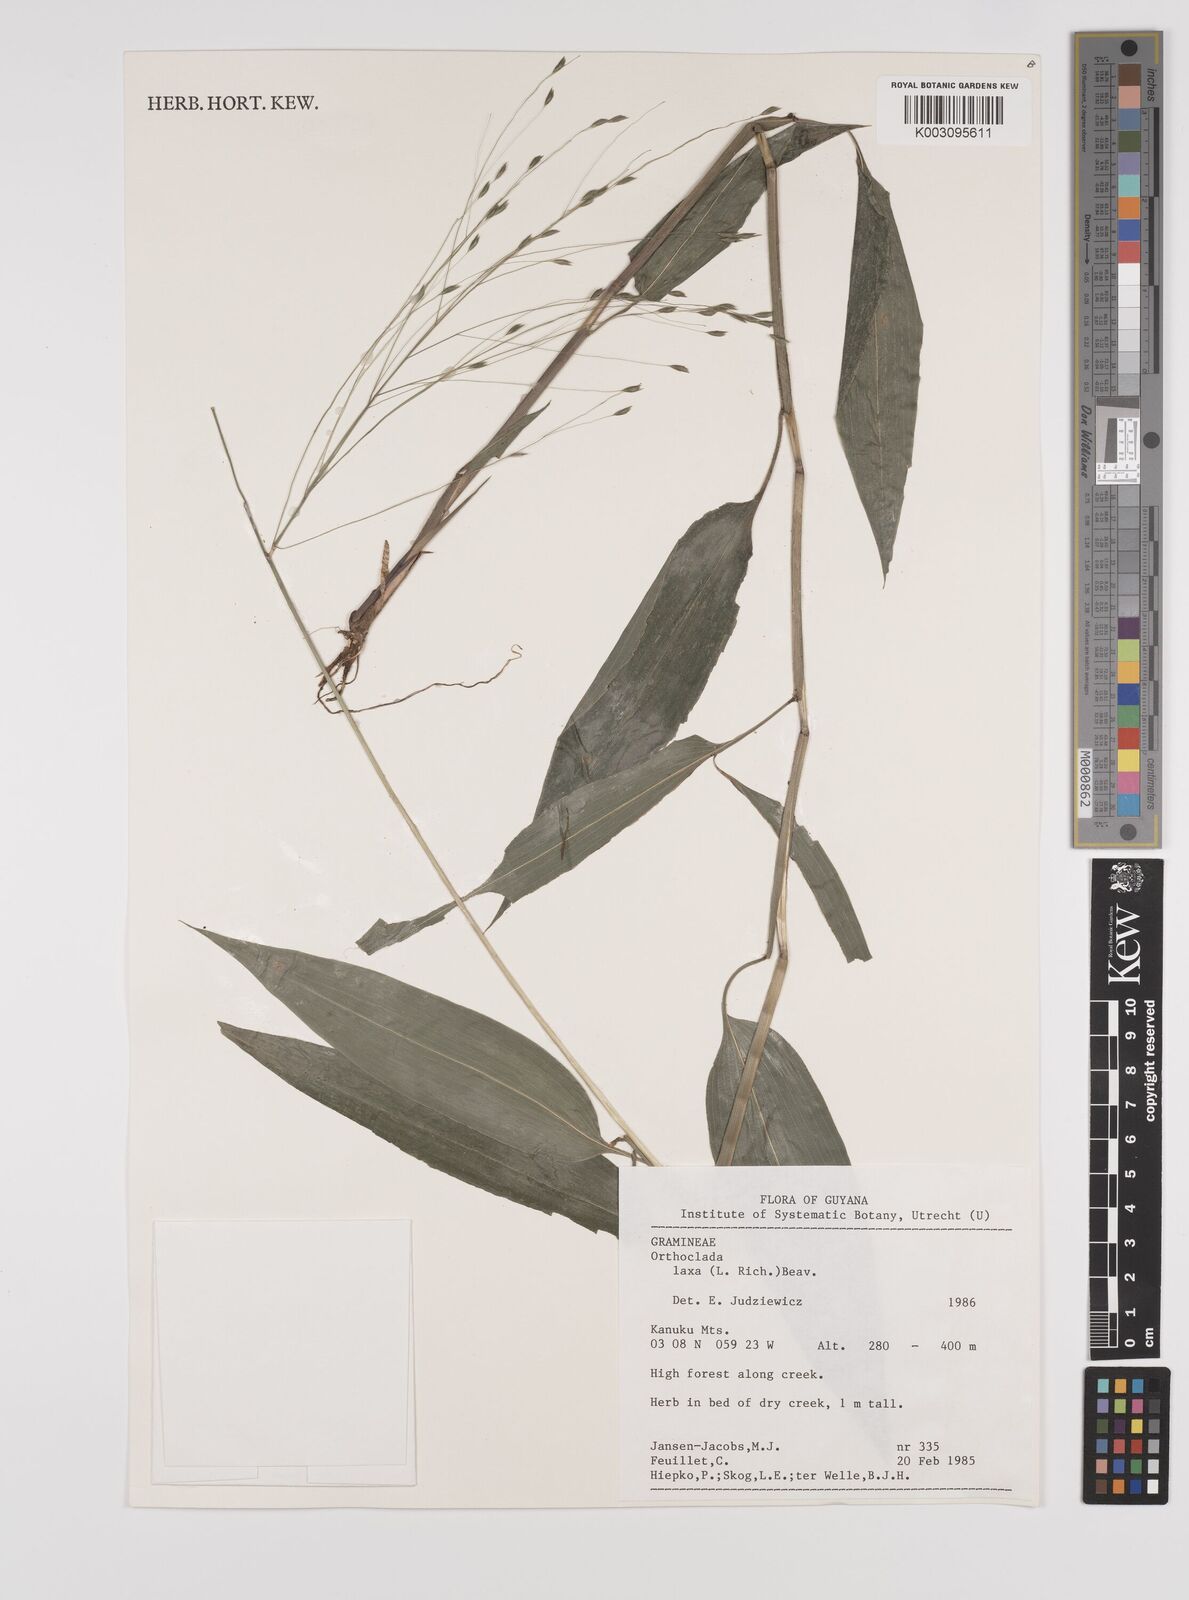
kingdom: Plantae
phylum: Tracheophyta
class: Liliopsida
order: Poales
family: Poaceae
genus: Orthoclada
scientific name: Orthoclada laxa
